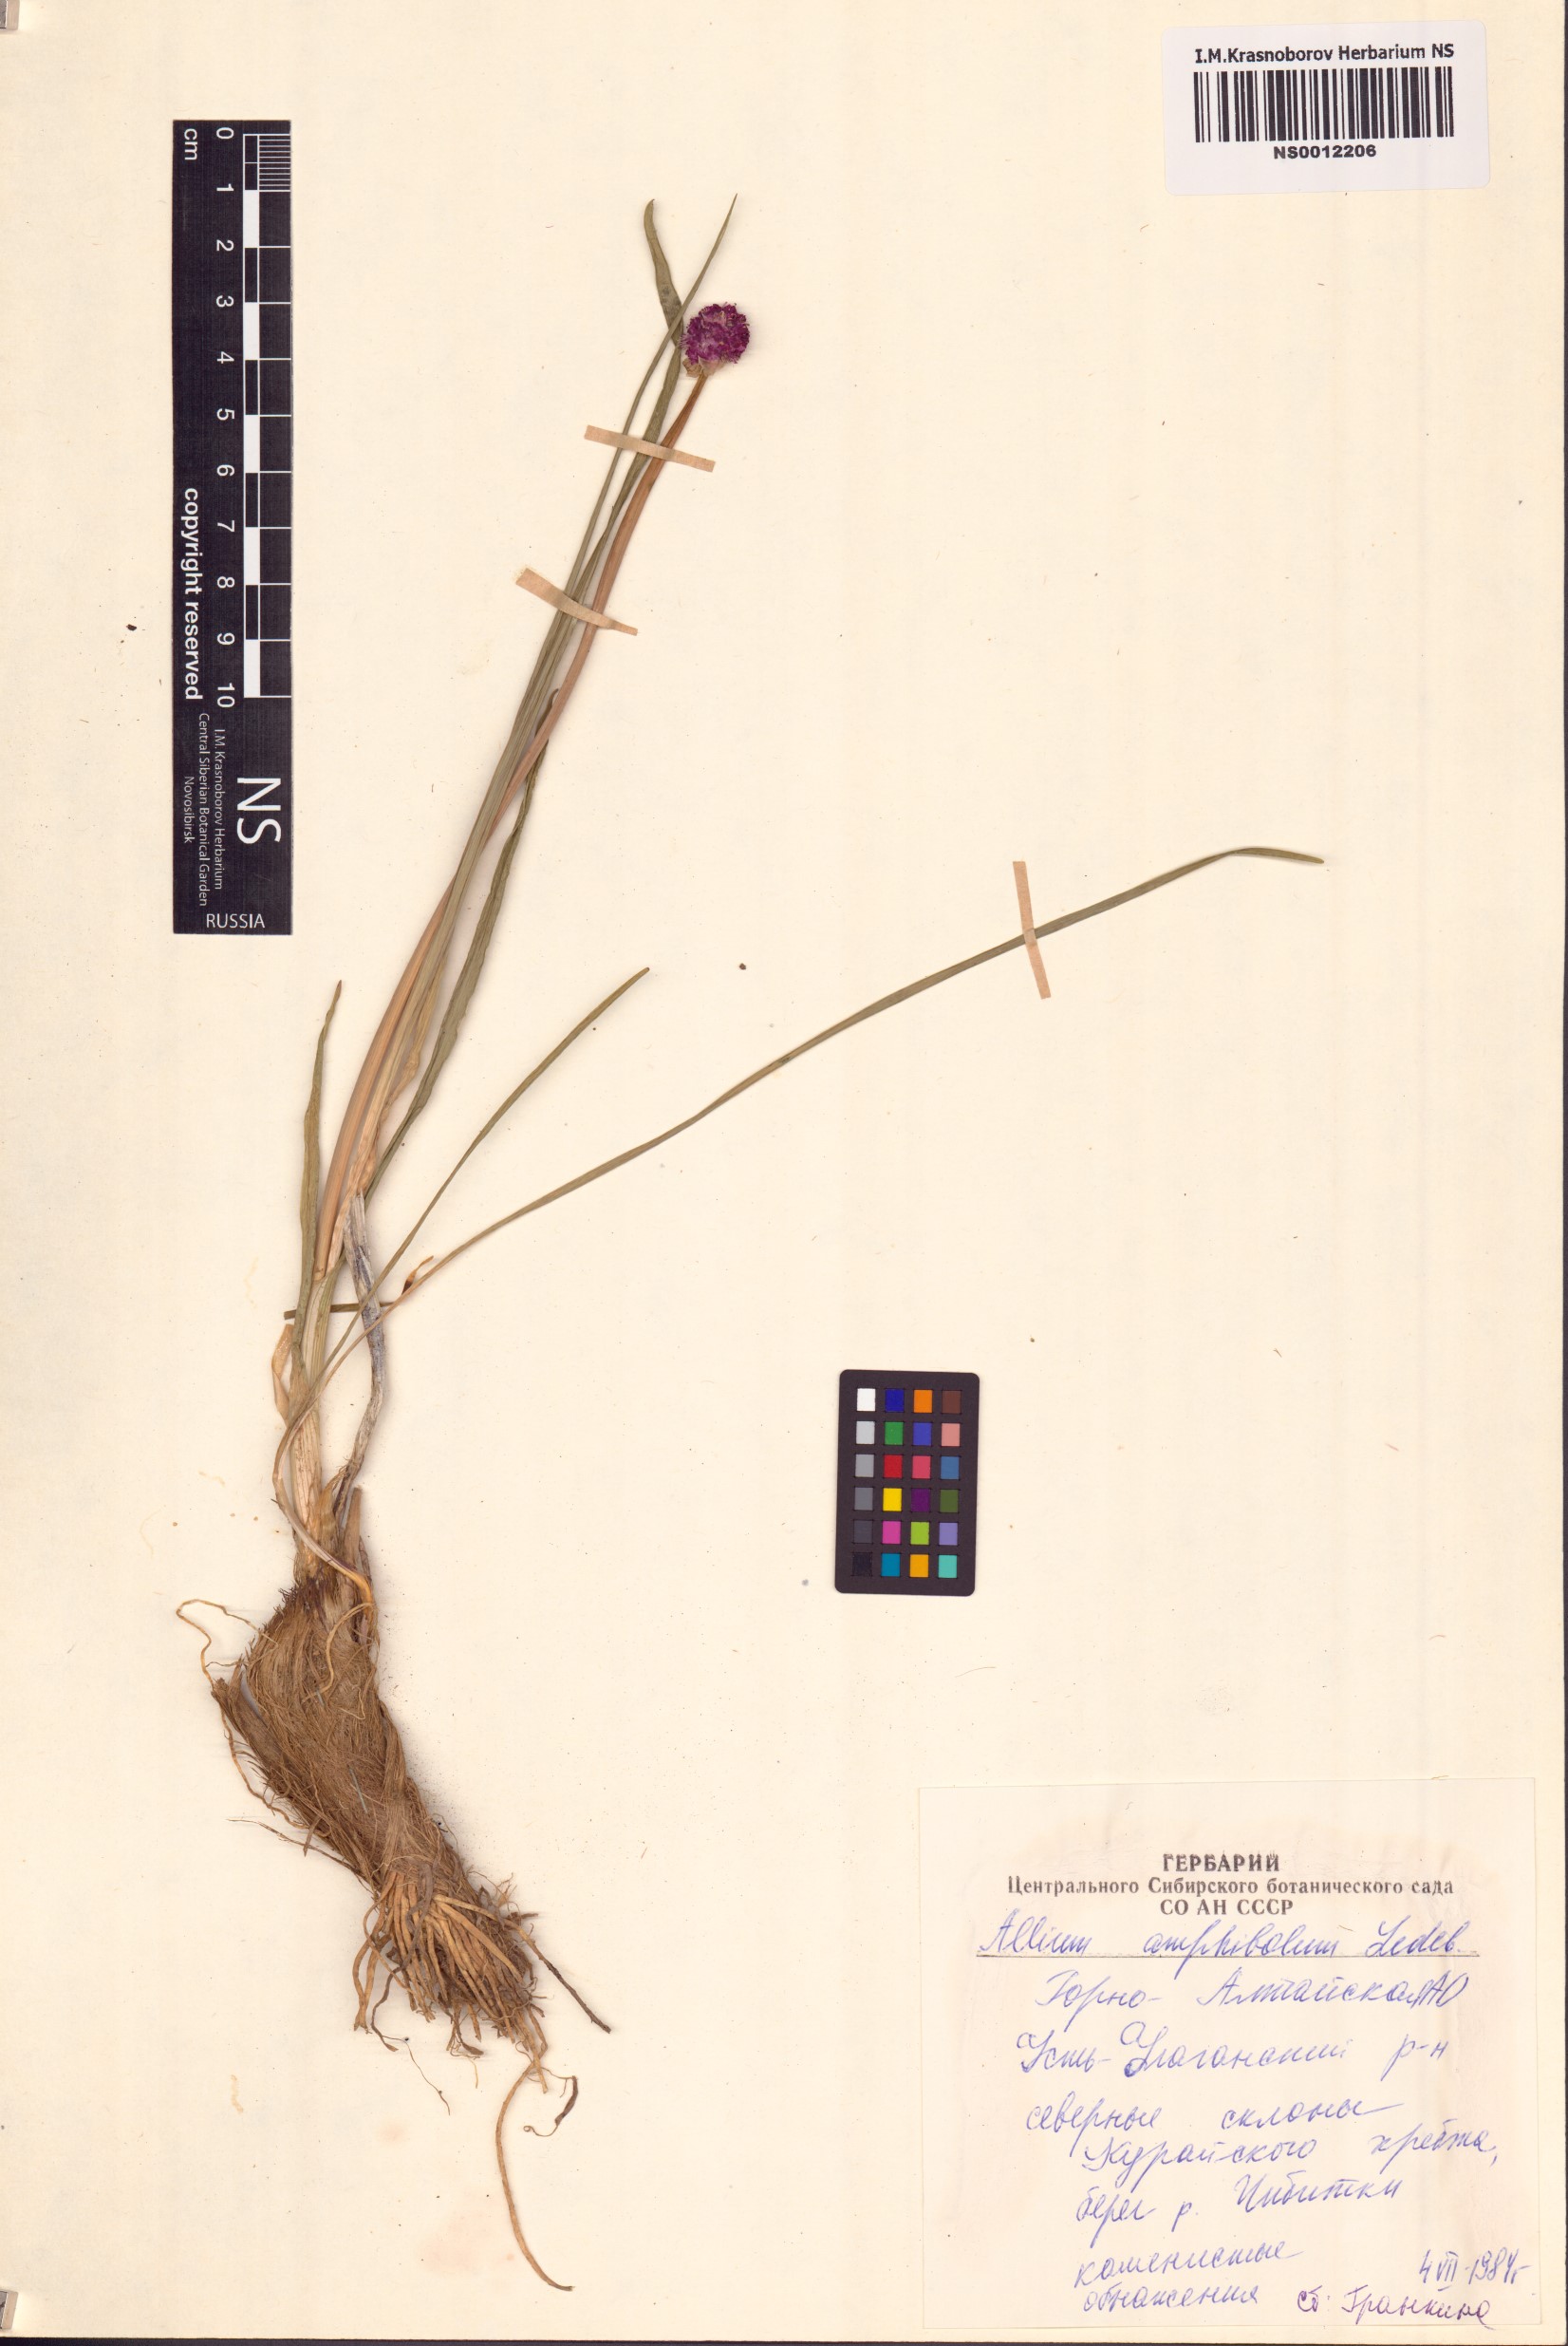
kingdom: Plantae
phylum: Tracheophyta
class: Liliopsida
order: Asparagales
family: Amaryllidaceae
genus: Allium
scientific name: Allium amphibolum
